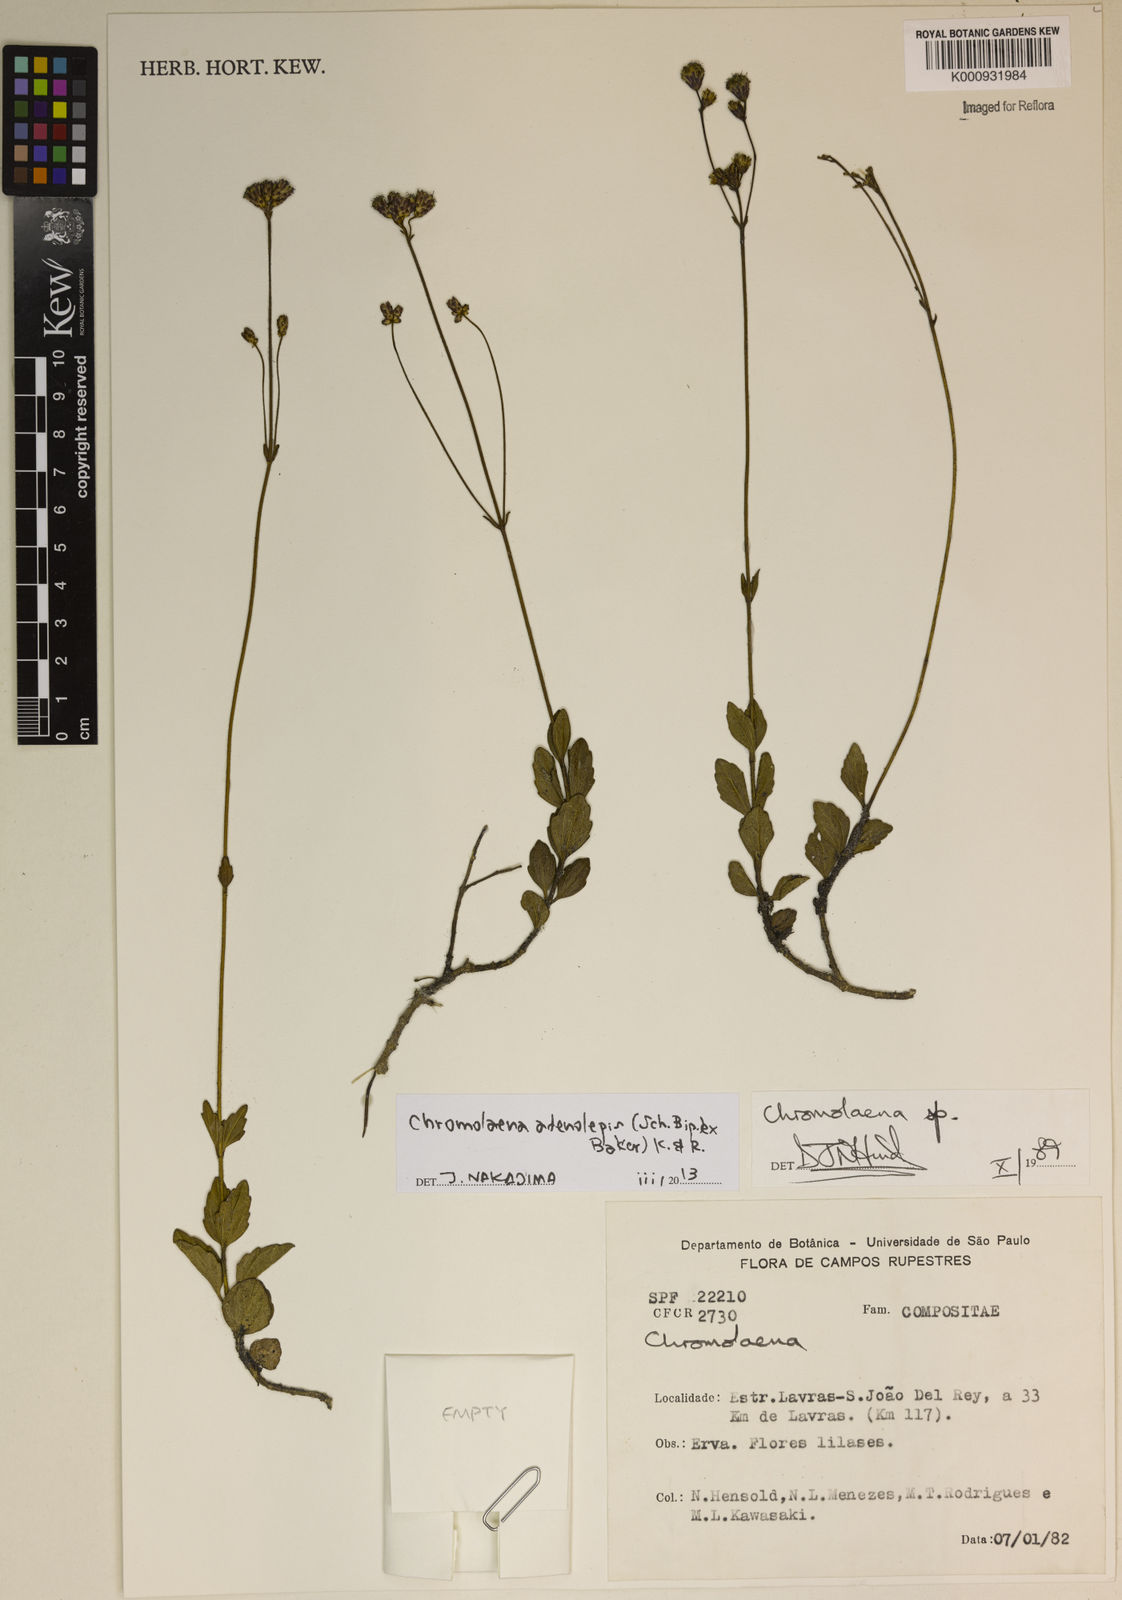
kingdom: Plantae
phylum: Tracheophyta
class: Magnoliopsida
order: Asterales
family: Asteraceae
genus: Chromolaena
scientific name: Chromolaena adenolepis
